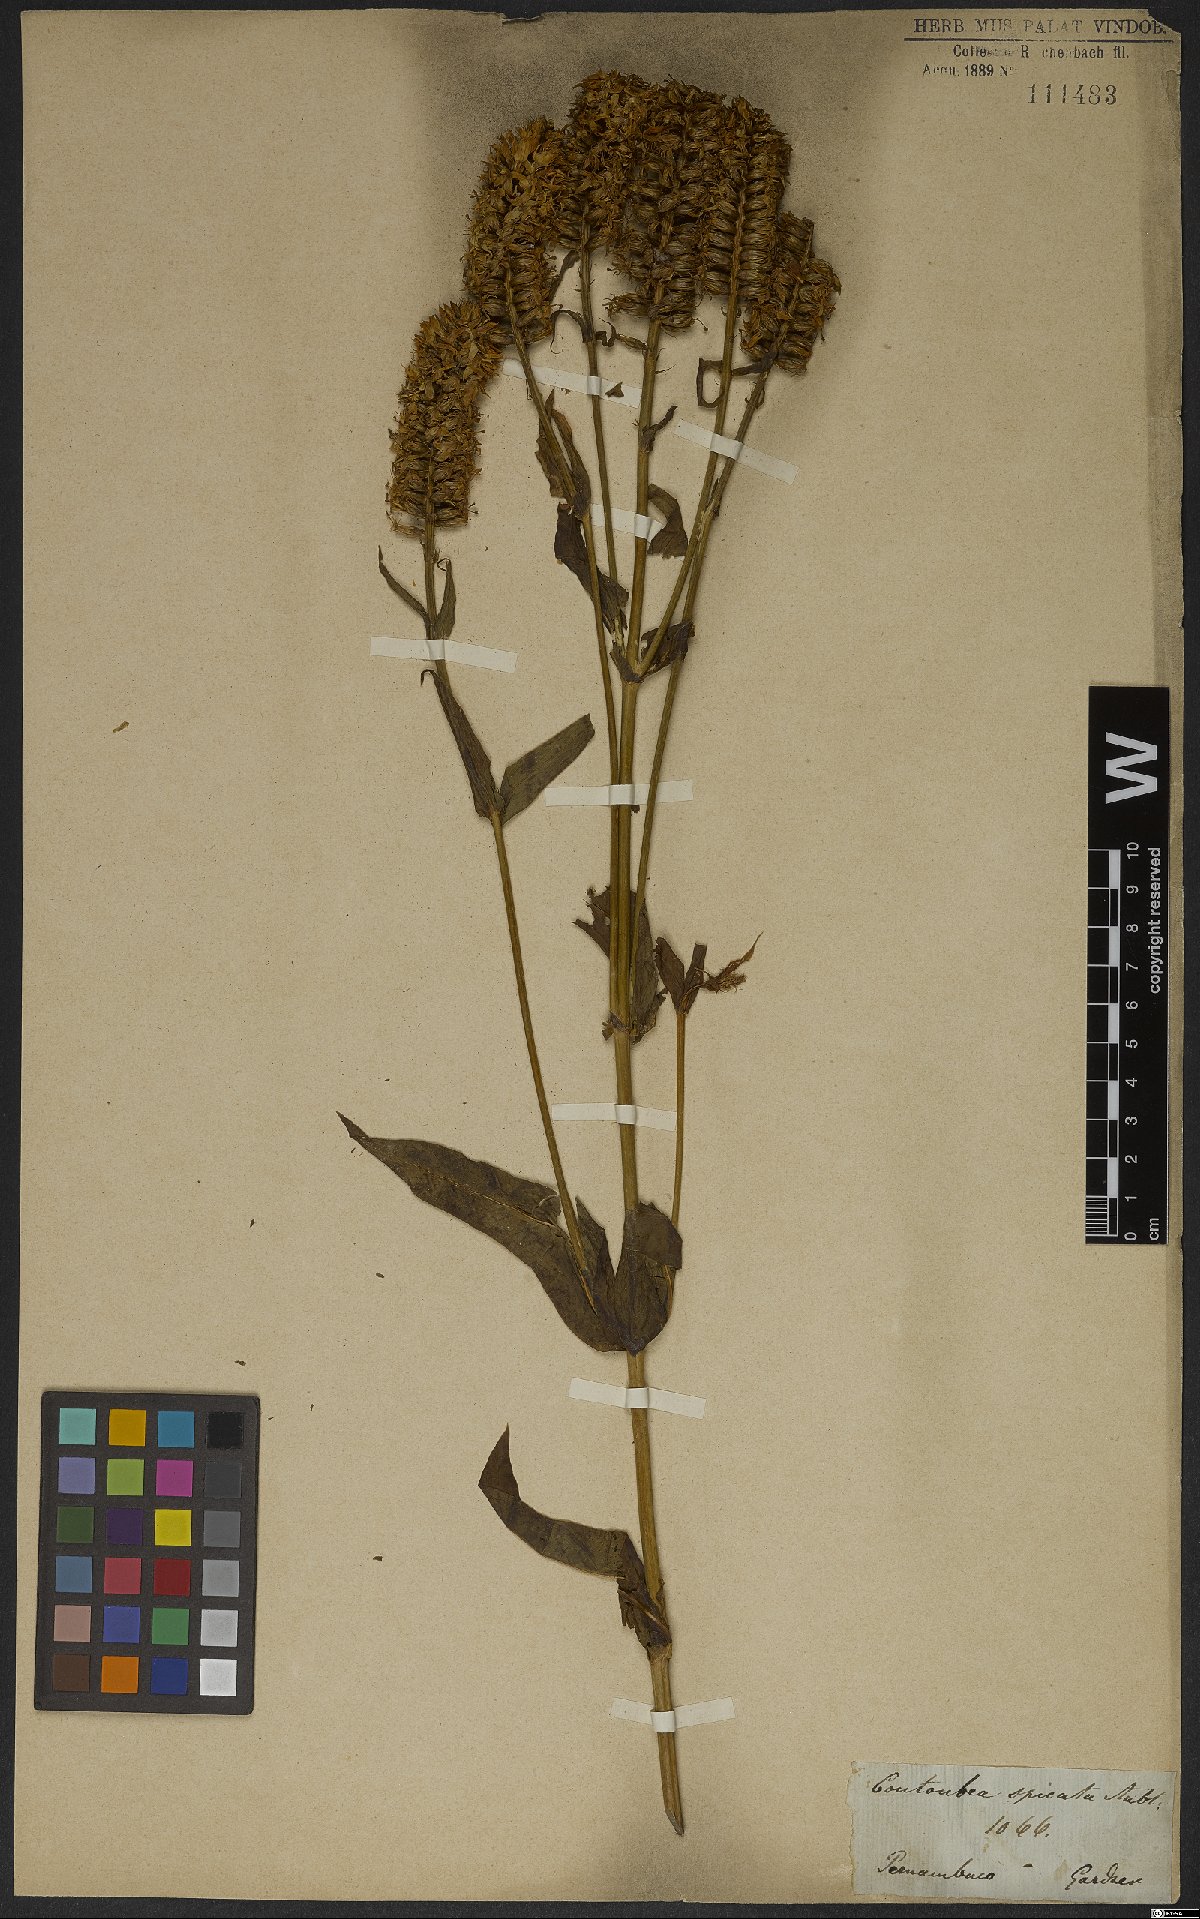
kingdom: Plantae
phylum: Tracheophyta
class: Magnoliopsida
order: Gentianales
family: Gentianaceae
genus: Coutoubea
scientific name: Coutoubea spicata
